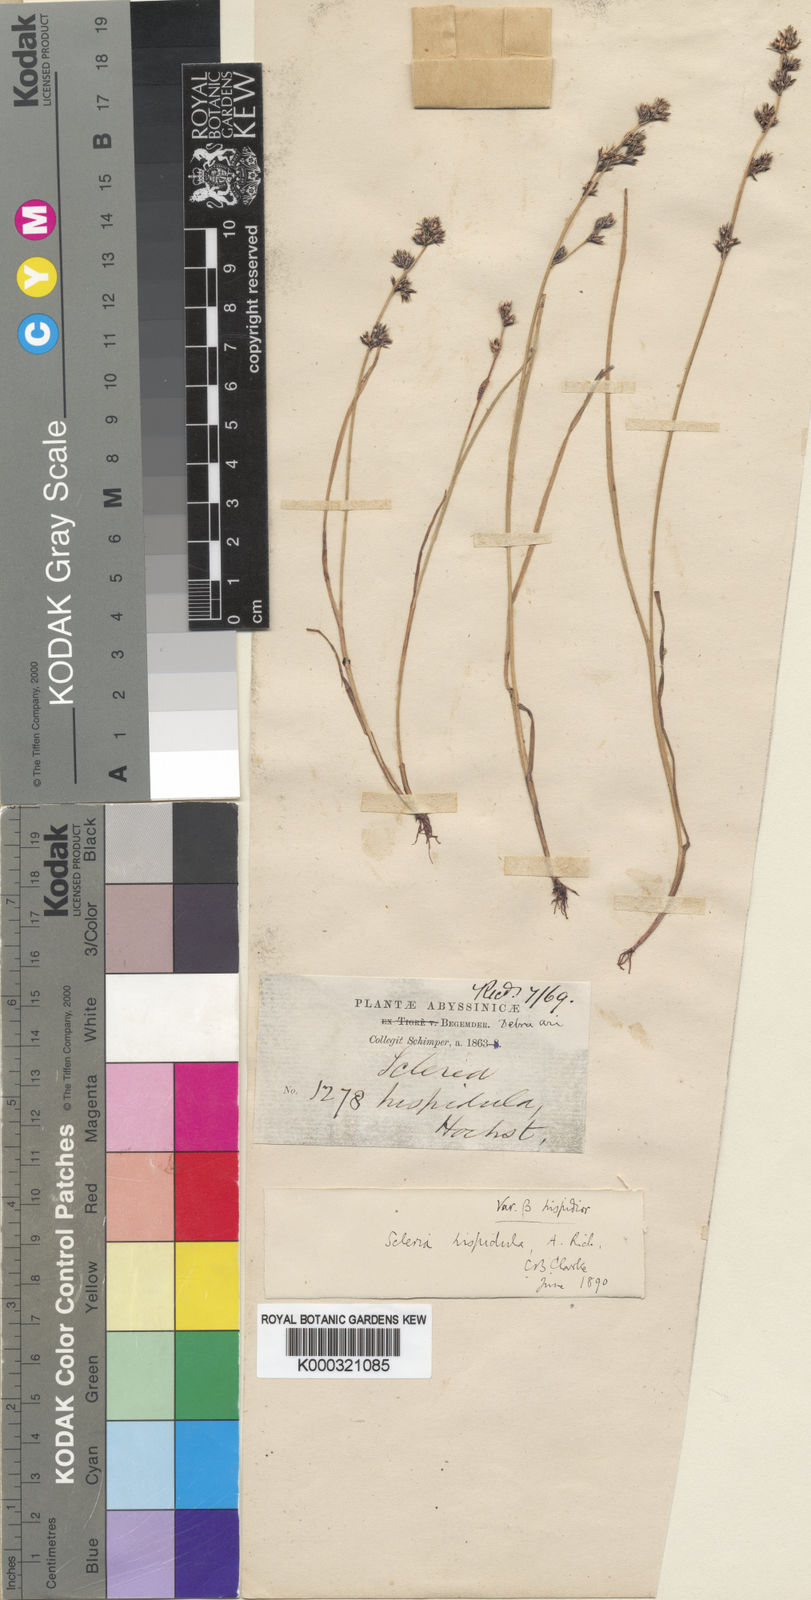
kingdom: Plantae
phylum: Tracheophyta
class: Liliopsida
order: Poales
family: Cyperaceae
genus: Scleria
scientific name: Scleria hispidula
